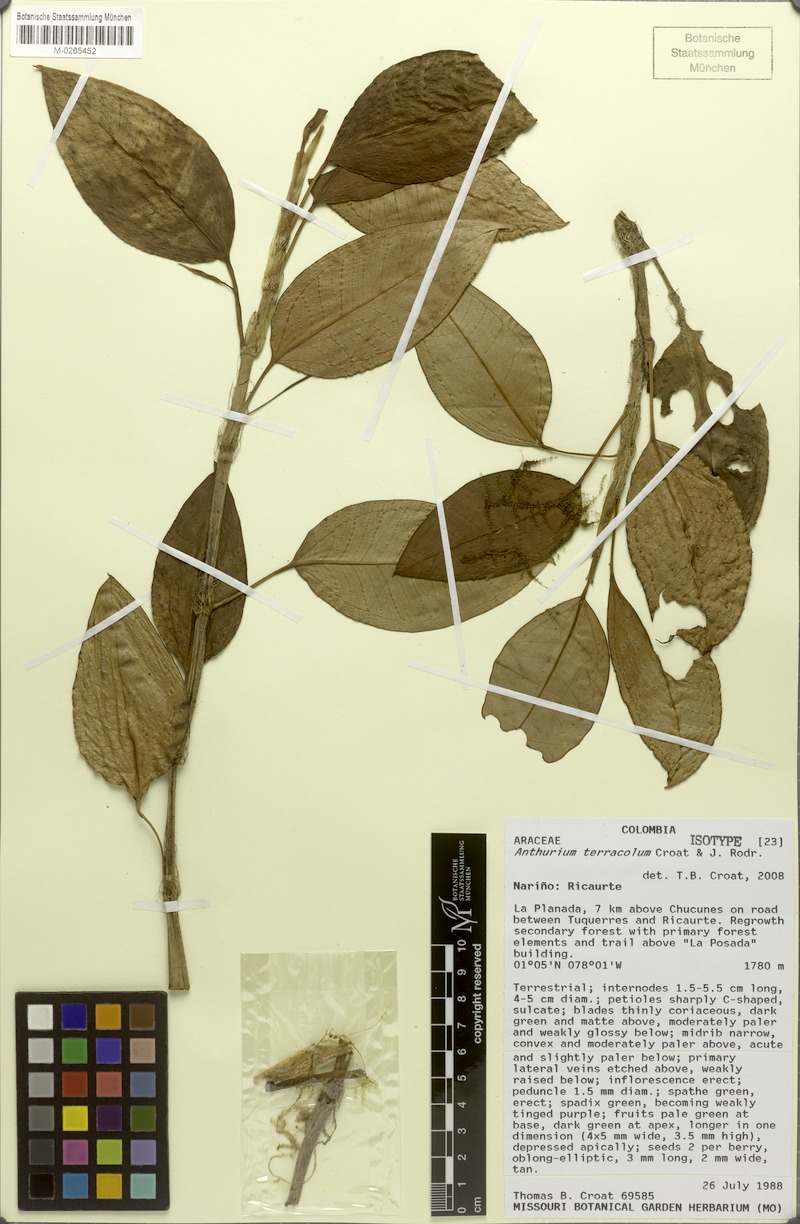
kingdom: Plantae
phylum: Tracheophyta
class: Liliopsida
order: Alismatales
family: Araceae
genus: Anthurium
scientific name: Anthurium terracola
